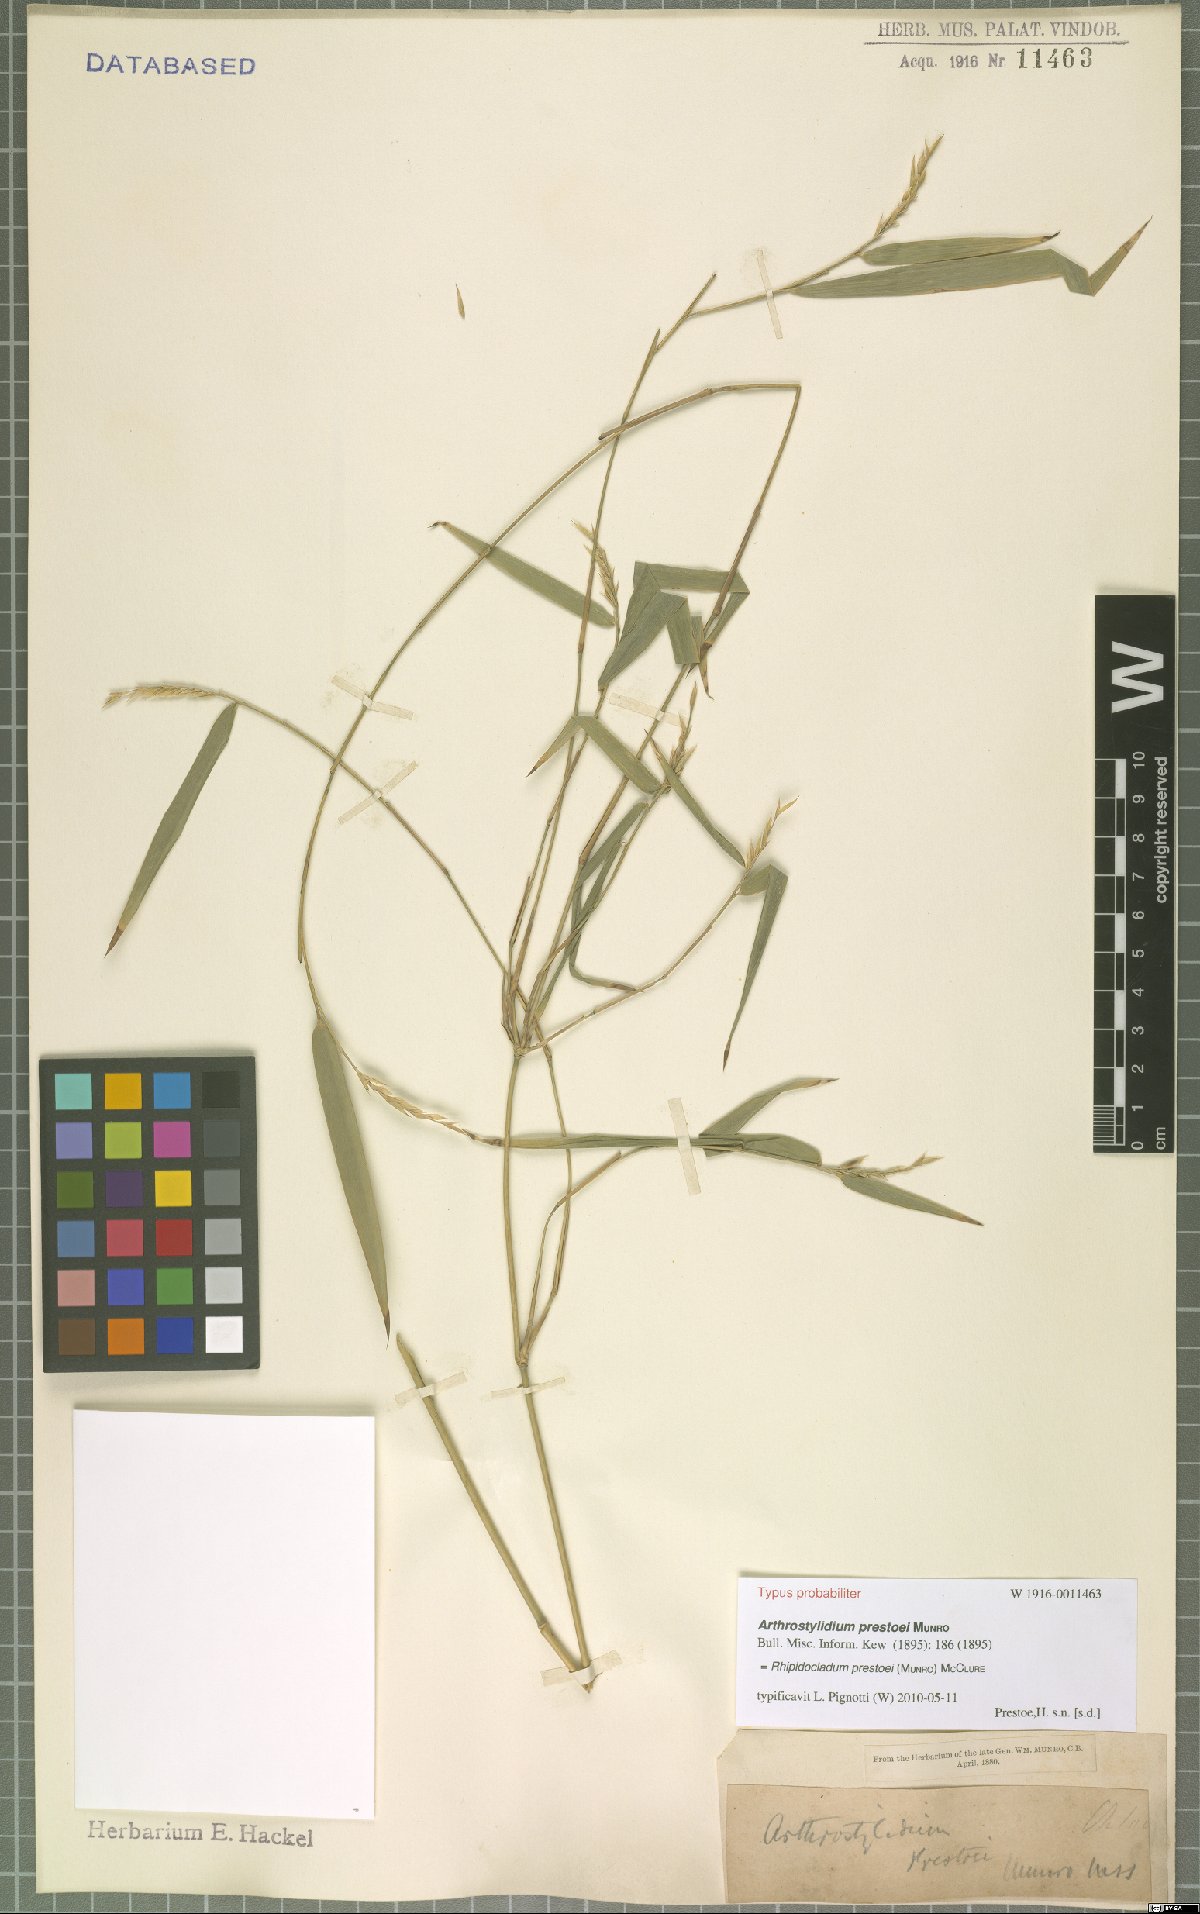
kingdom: Plantae
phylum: Tracheophyta
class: Liliopsida
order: Poales
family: Poaceae
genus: Rhipidocladum
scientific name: Rhipidocladum prestoei
